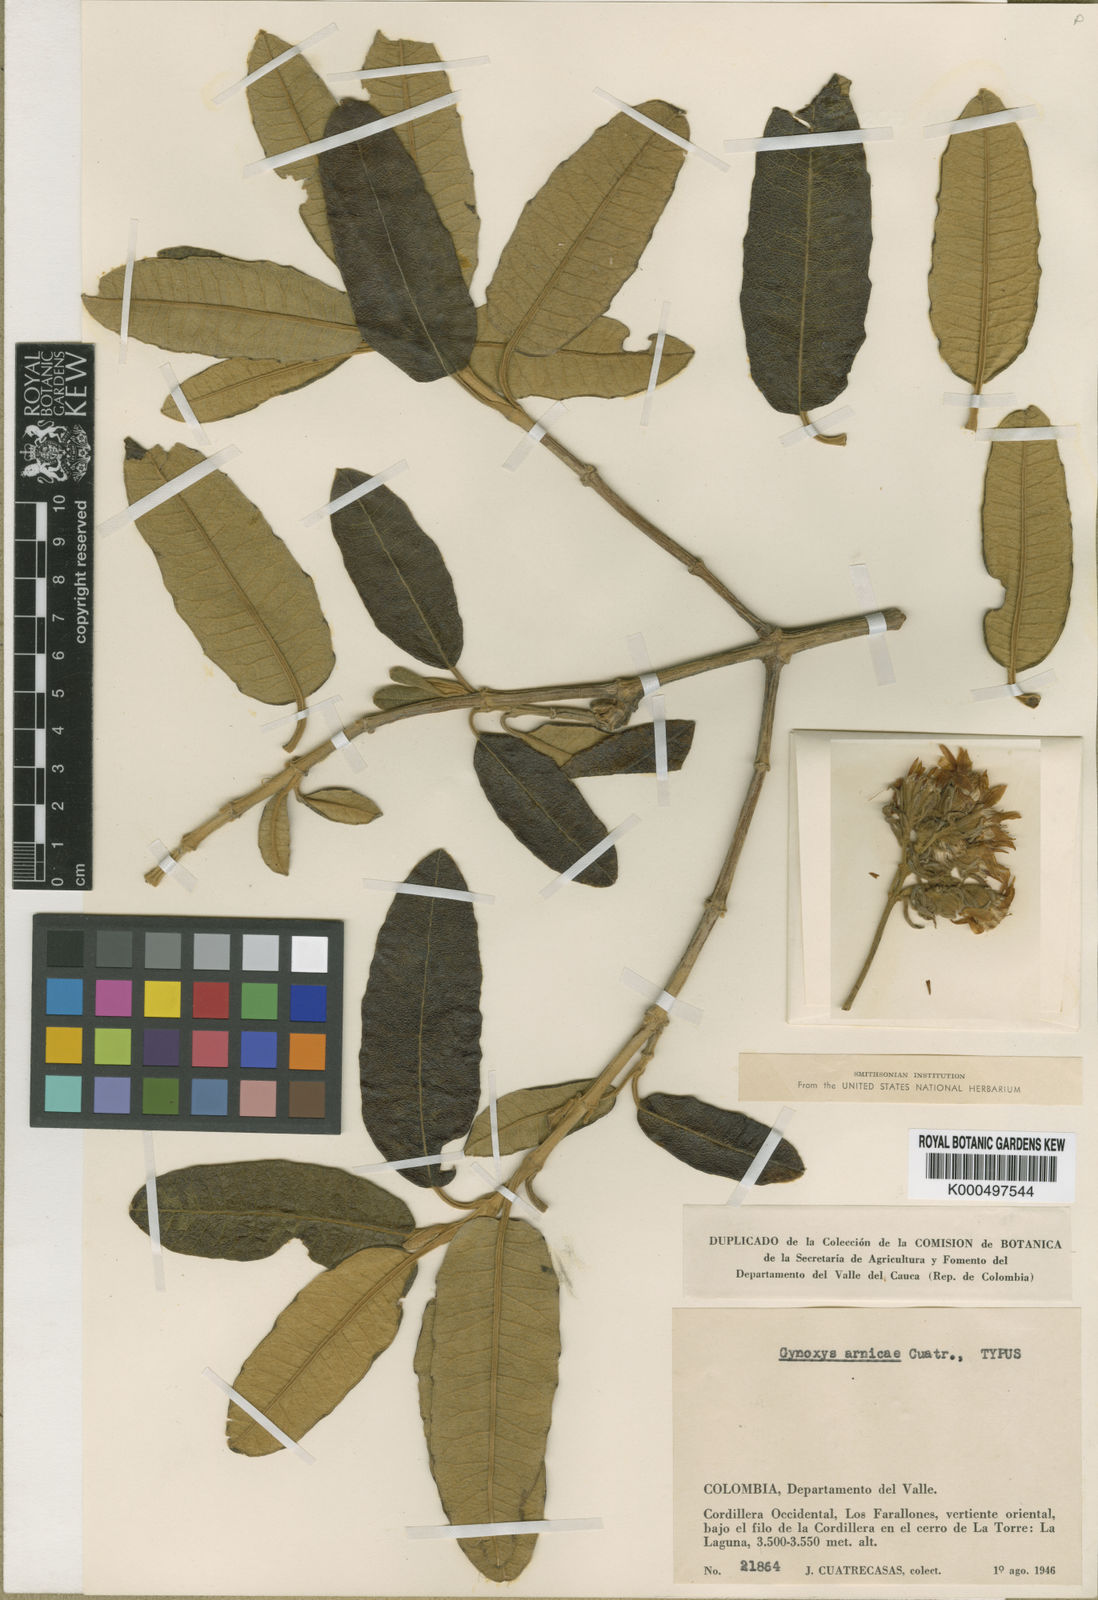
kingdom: Plantae
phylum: Tracheophyta
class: Magnoliopsida
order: Asterales
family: Asteraceae
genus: Gynoxys
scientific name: Gynoxys arnicae
